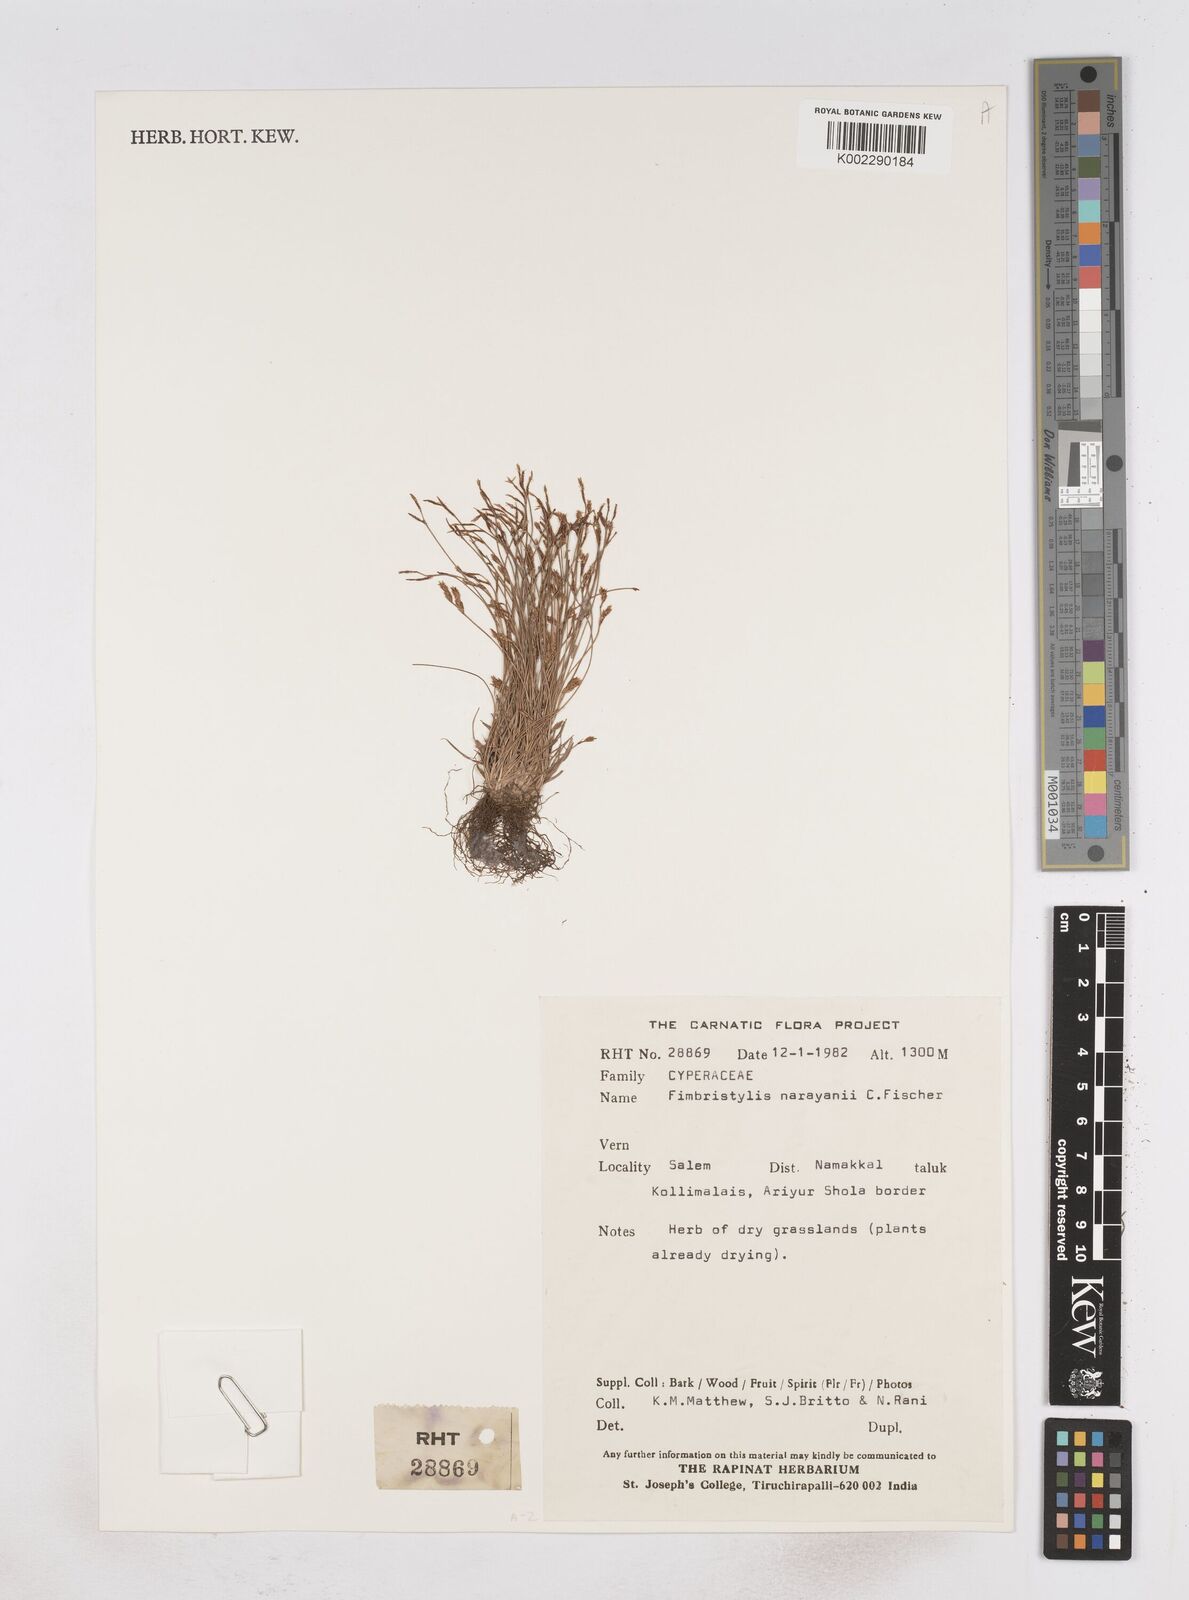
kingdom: Plantae
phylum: Tracheophyta
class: Liliopsida
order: Poales
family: Cyperaceae
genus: Fimbristylis
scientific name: Fimbristylis narayanii
